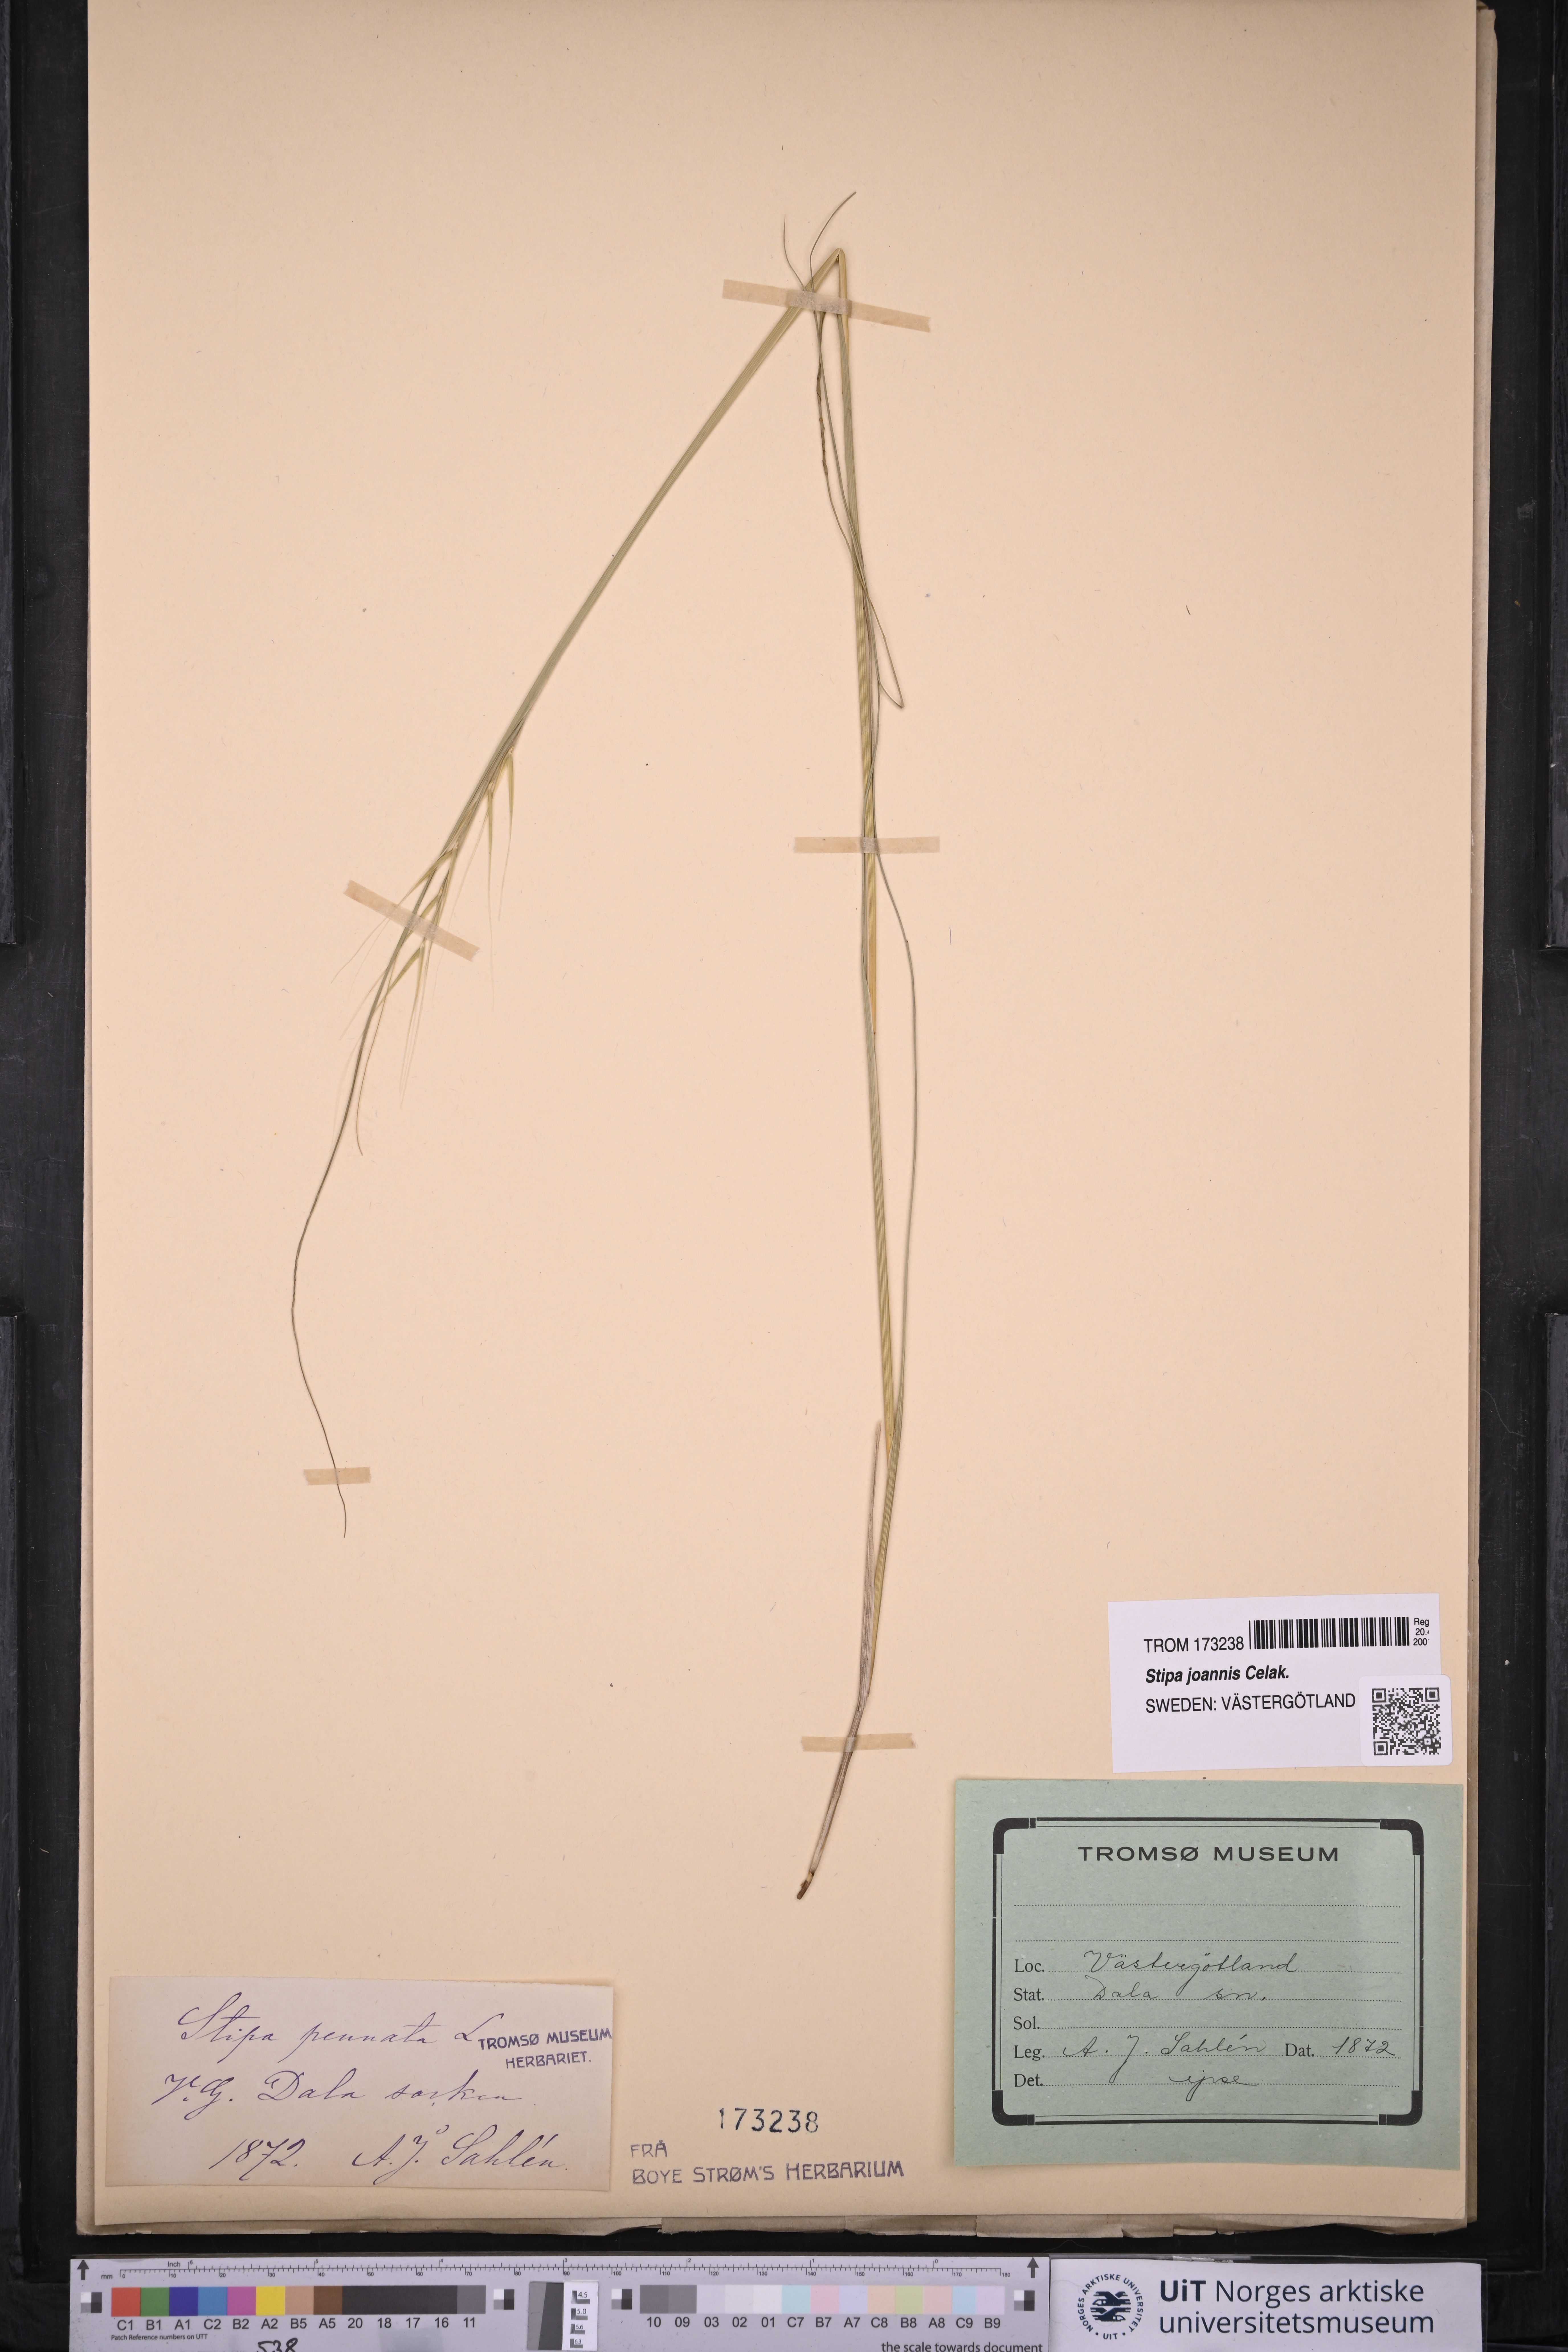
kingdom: Plantae
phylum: Tracheophyta
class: Liliopsida
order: Poales
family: Poaceae
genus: Stipa
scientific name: Stipa pennata
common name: European feather grass
